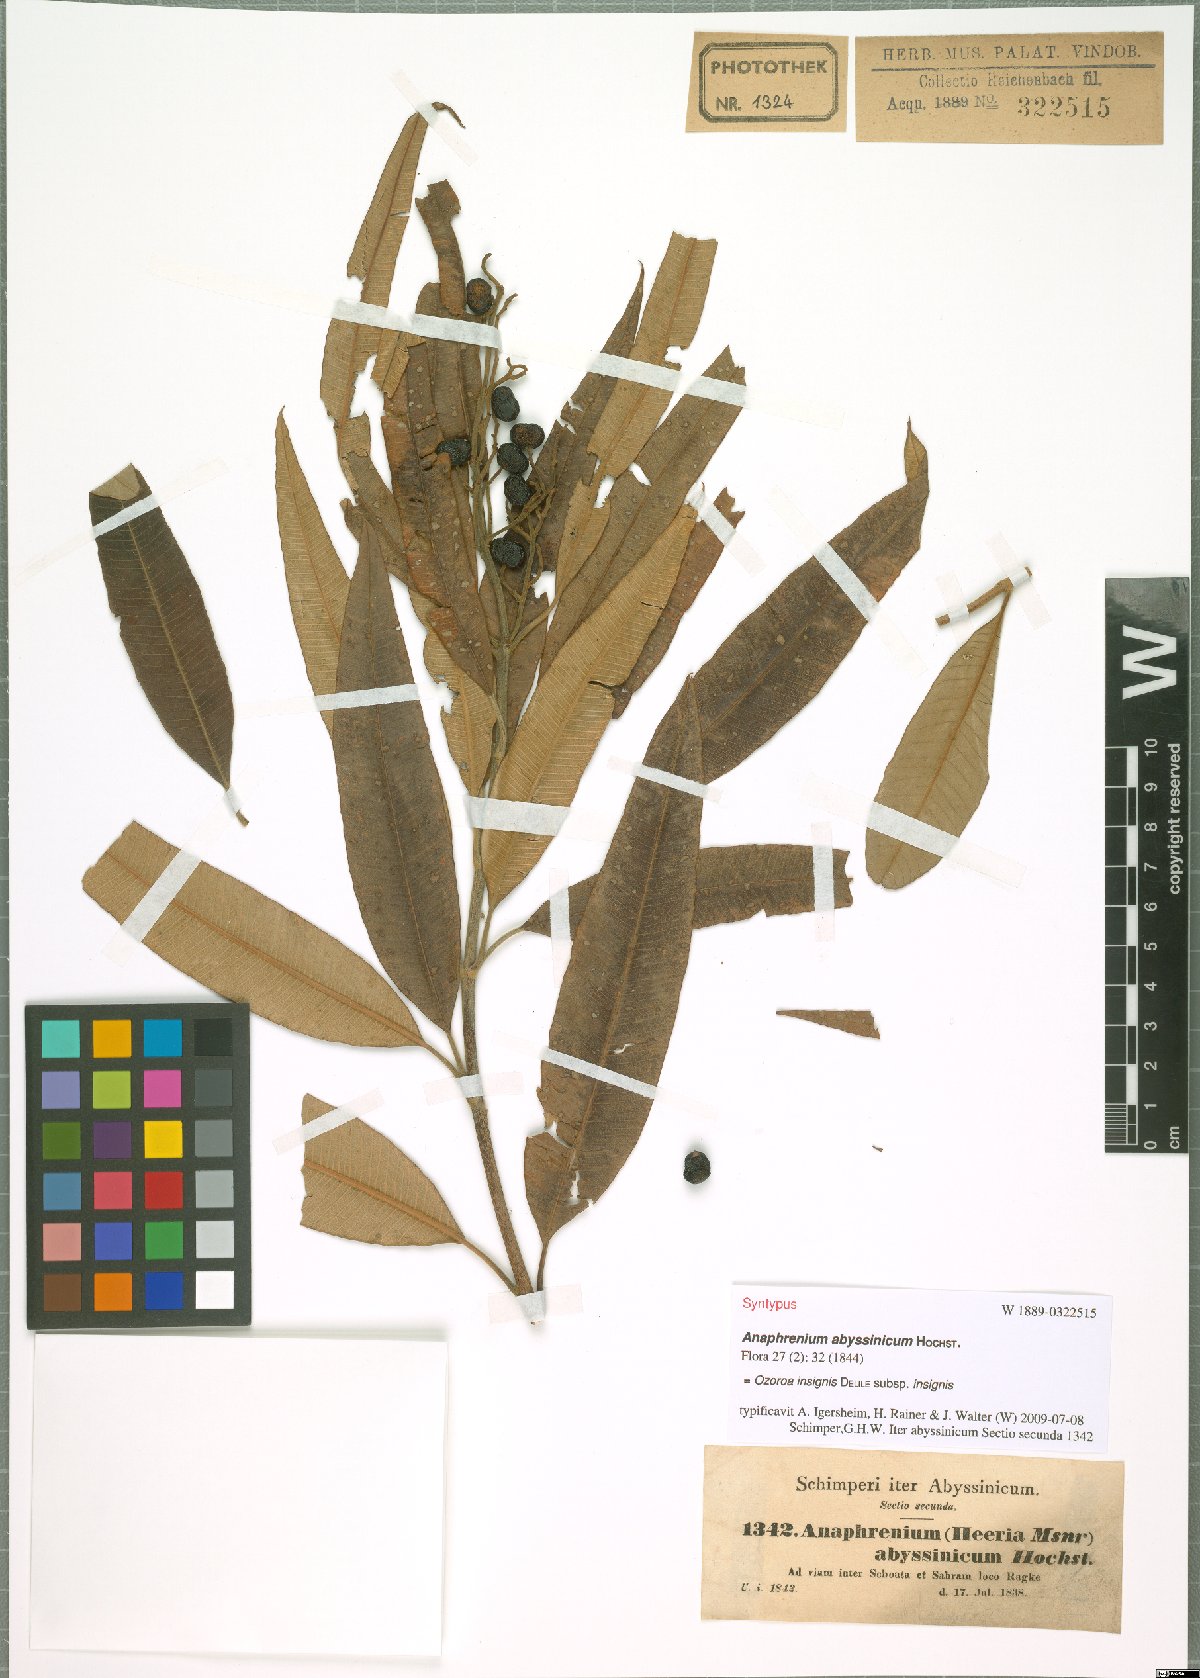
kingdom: Plantae
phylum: Tracheophyta
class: Magnoliopsida
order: Sapindales
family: Anacardiaceae
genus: Ozoroa
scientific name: Ozoroa insignis
